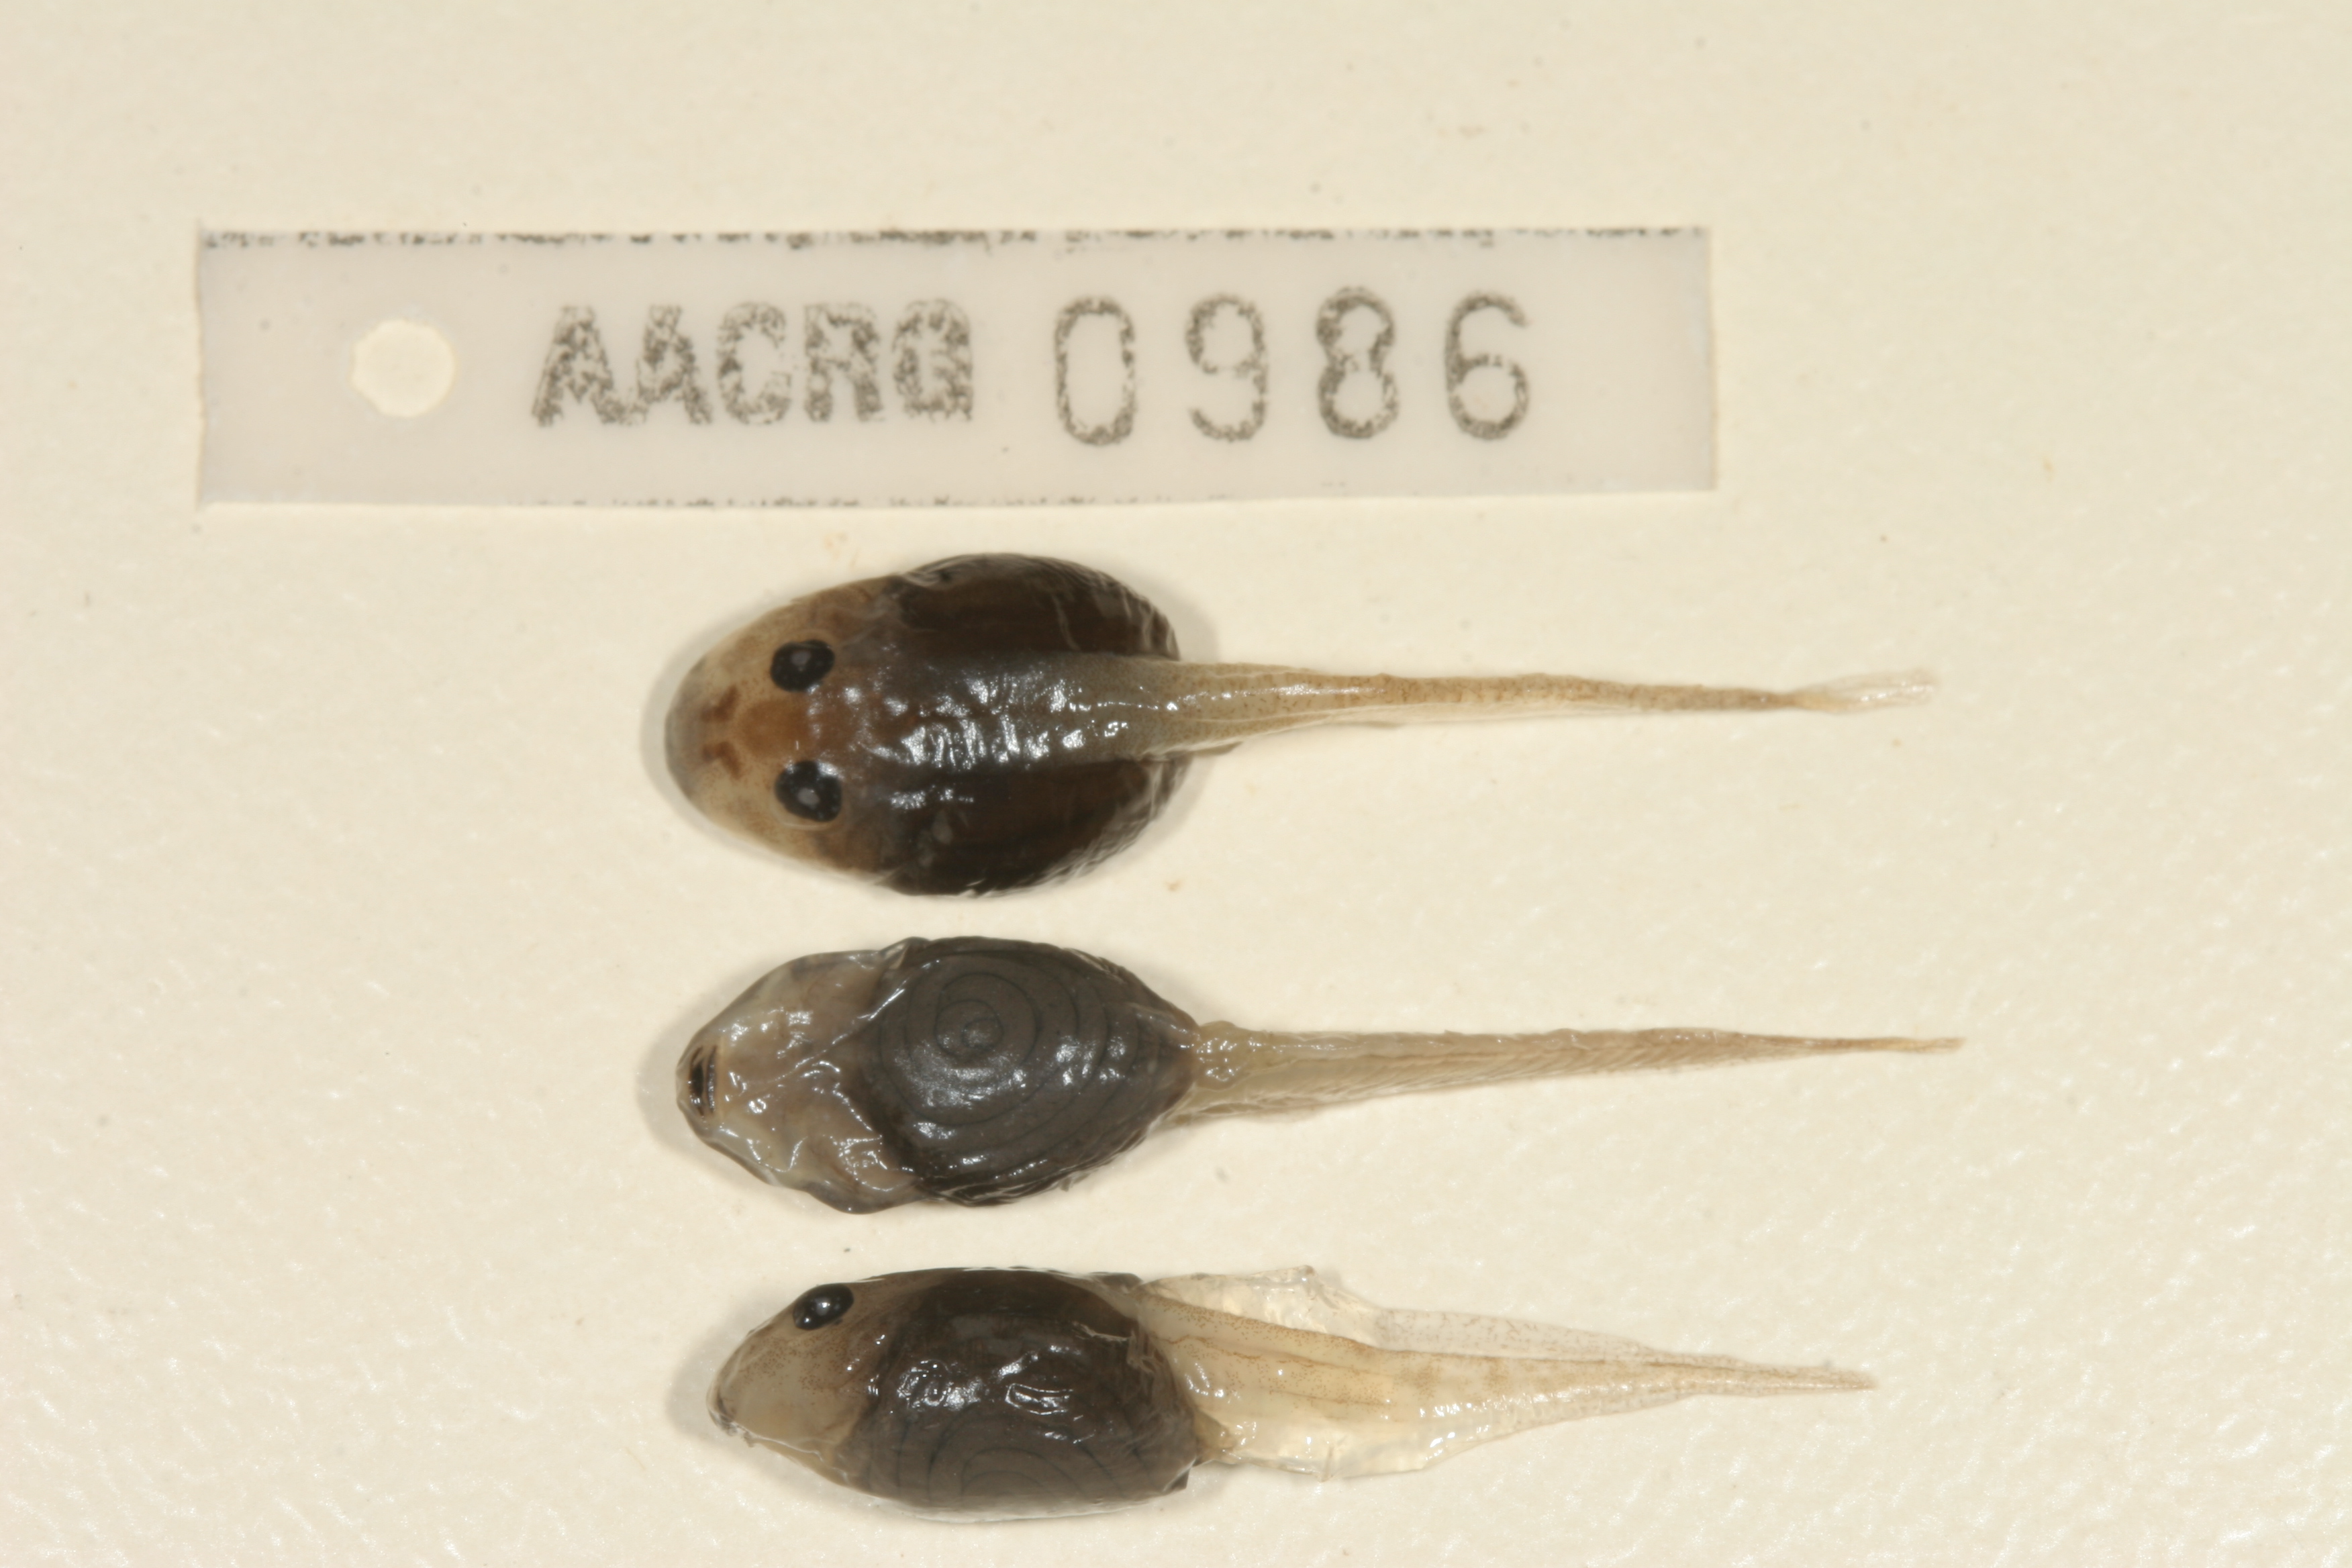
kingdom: Animalia
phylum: Chordata
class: Amphibia
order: Anura
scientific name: Anura
